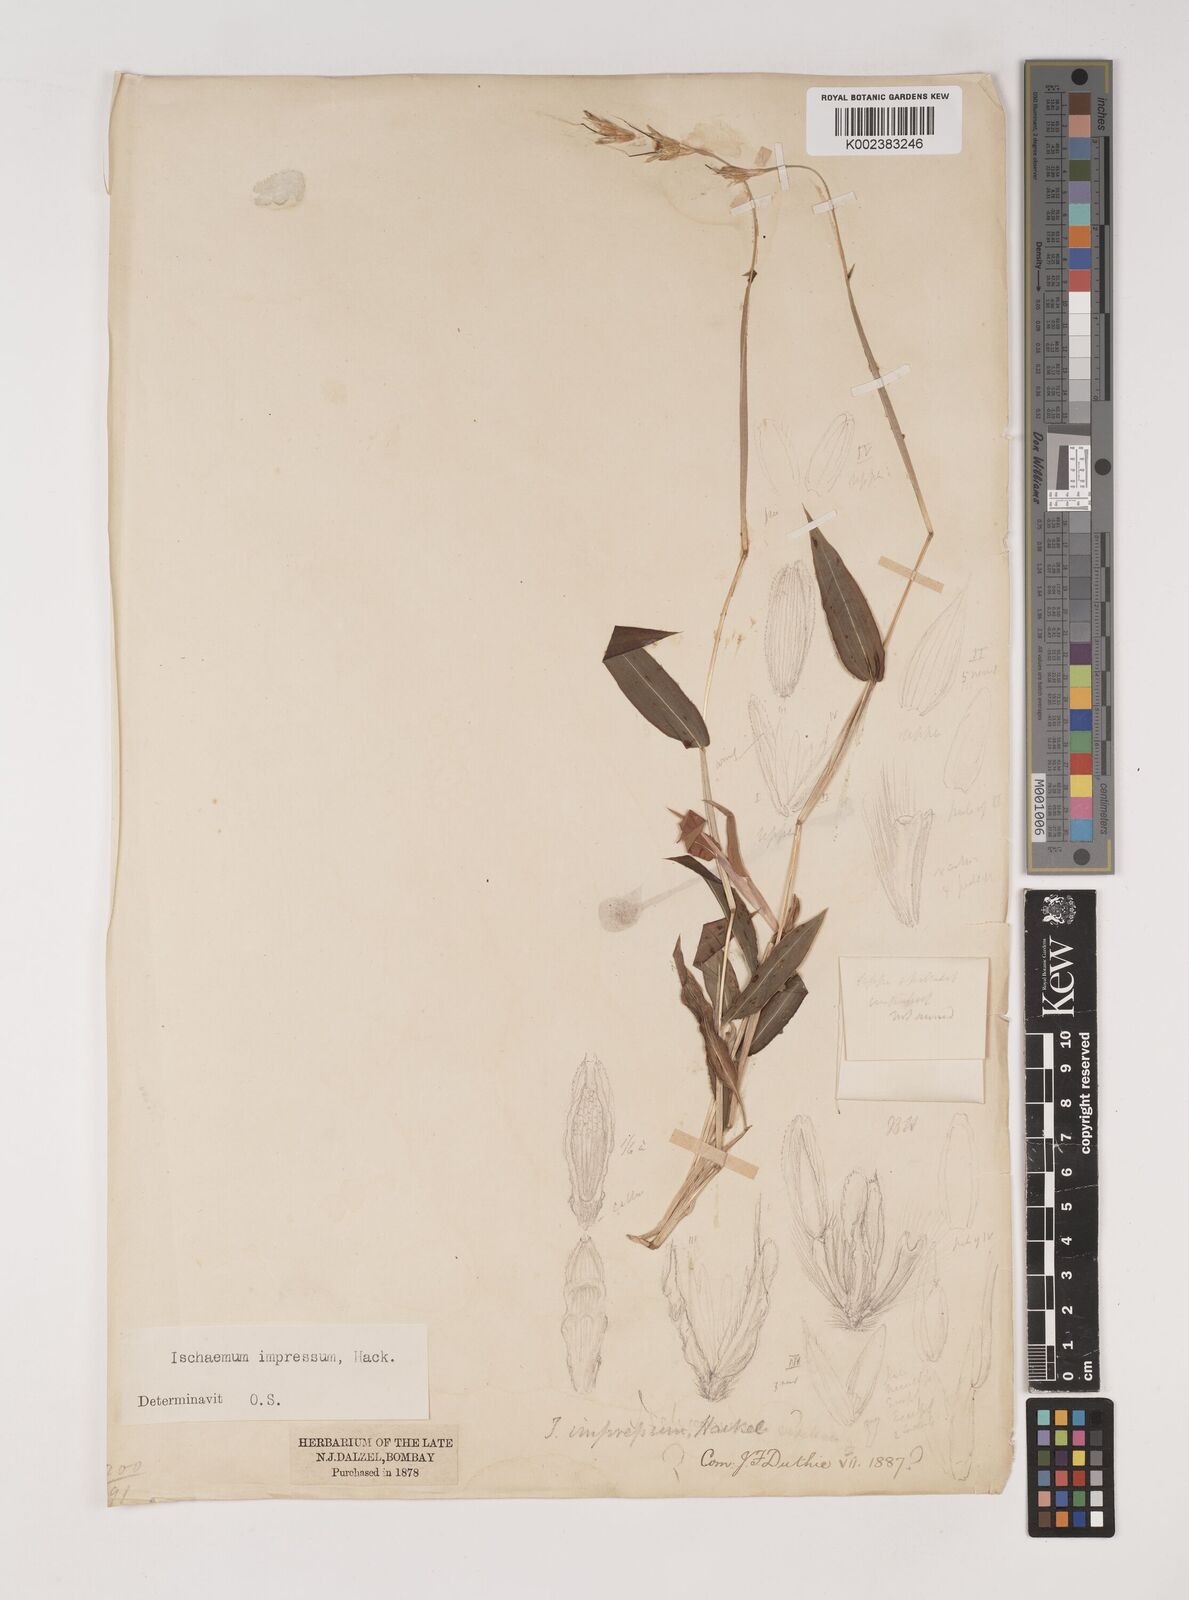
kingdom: Plantae
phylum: Tracheophyta
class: Liliopsida
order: Poales
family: Poaceae
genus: Ischaemum
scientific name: Ischaemum impressum
